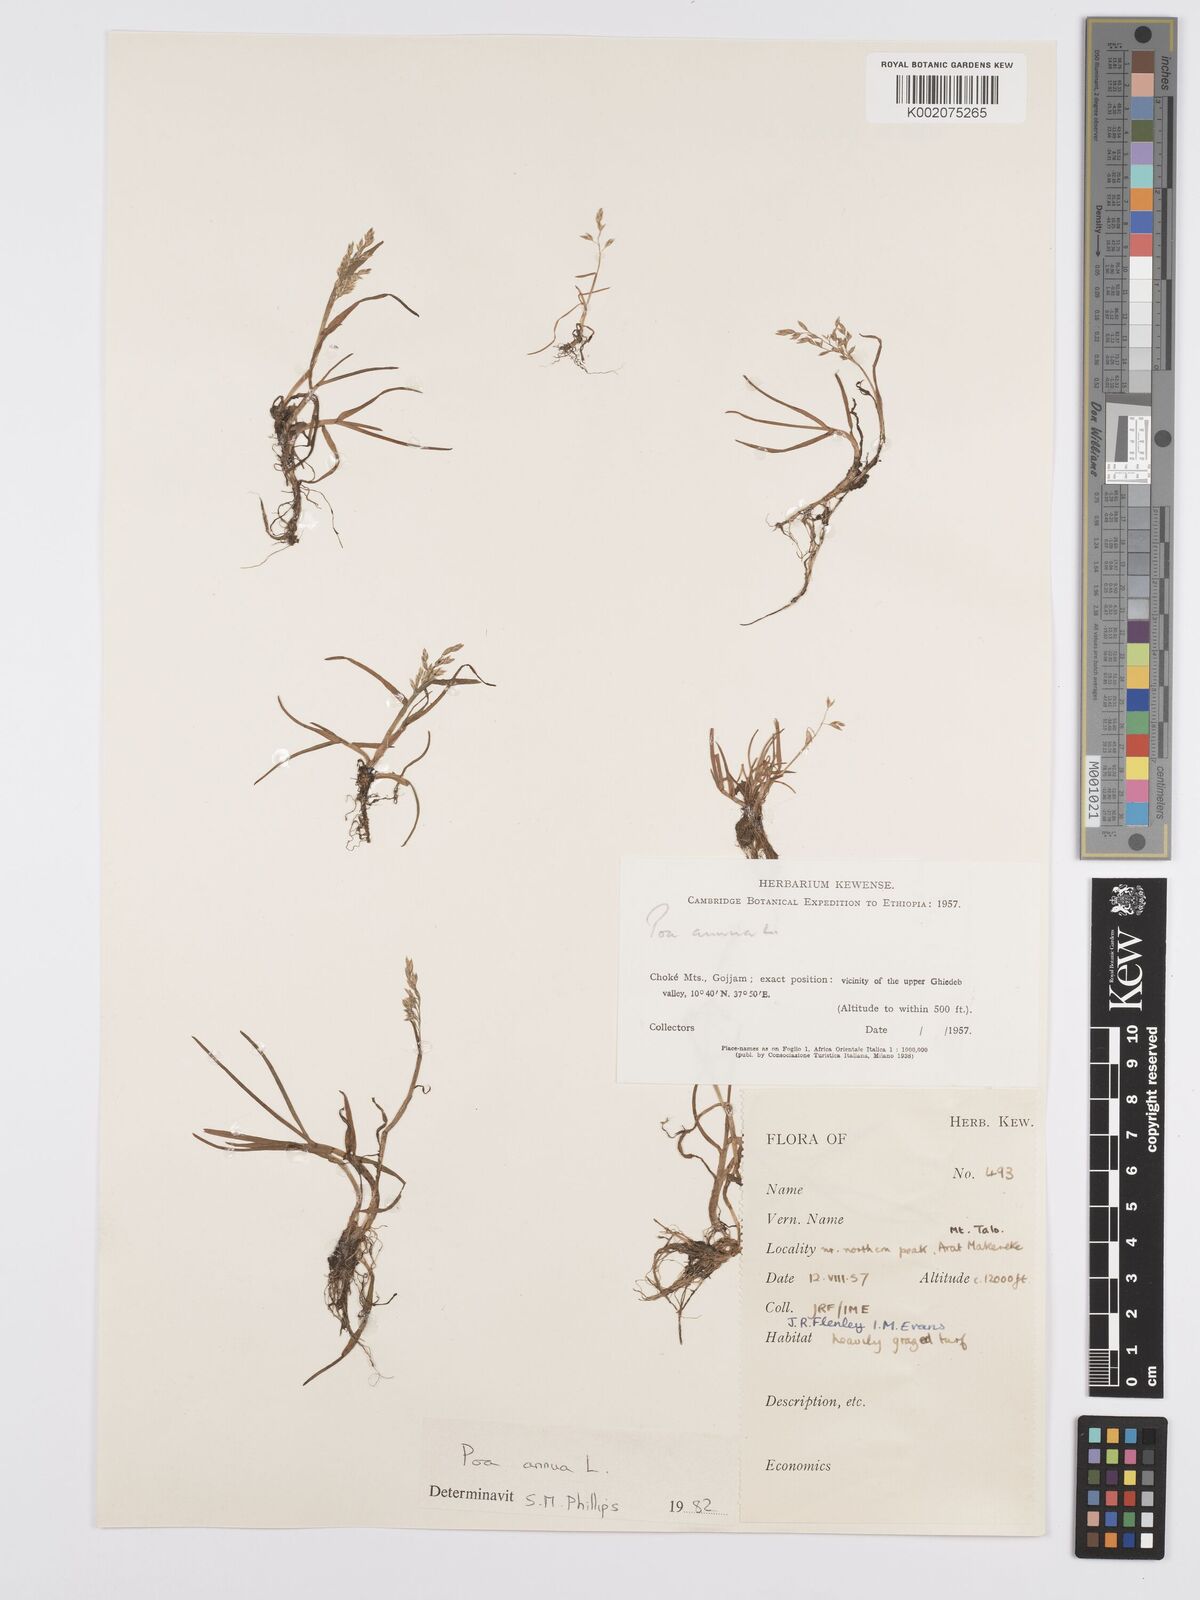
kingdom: Plantae
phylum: Tracheophyta
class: Liliopsida
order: Poales
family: Poaceae
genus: Poa
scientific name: Poa annua
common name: Annual bluegrass
